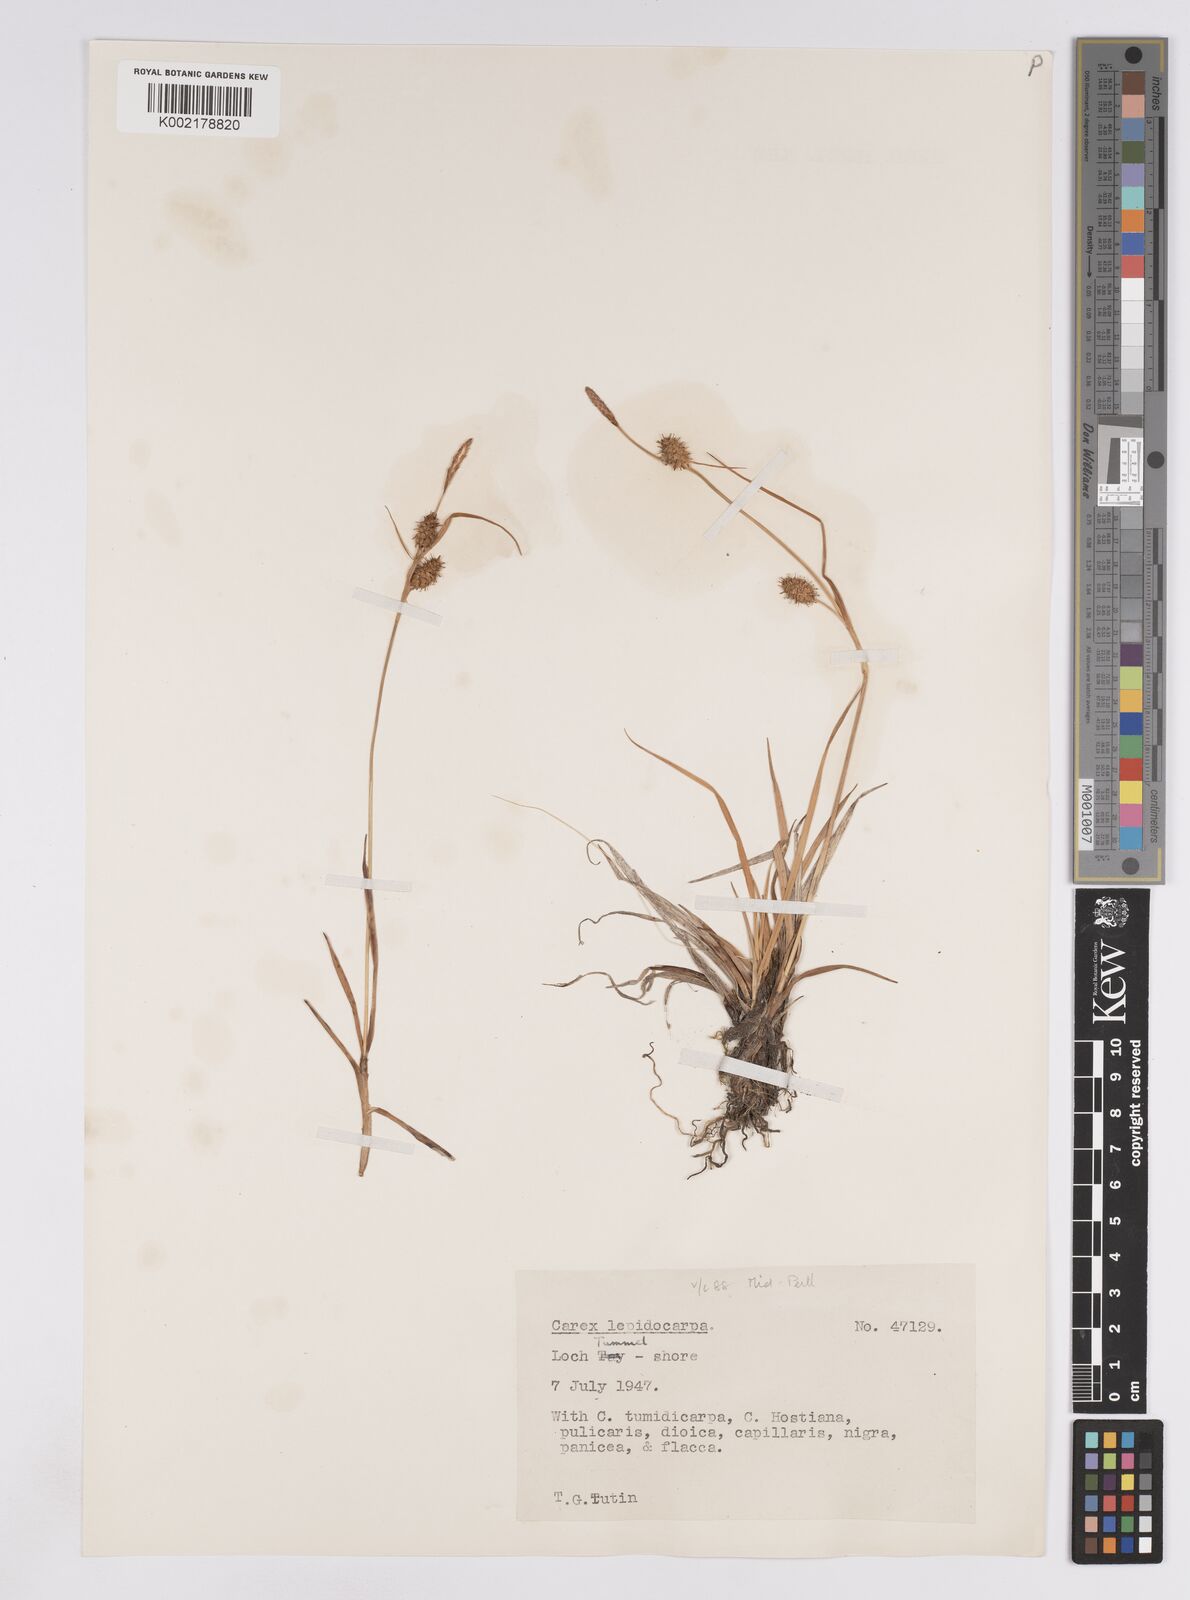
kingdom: Plantae
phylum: Tracheophyta
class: Liliopsida
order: Poales
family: Cyperaceae
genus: Carex
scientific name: Carex lepidocarpa
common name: Long-stalked yellow-sedge
